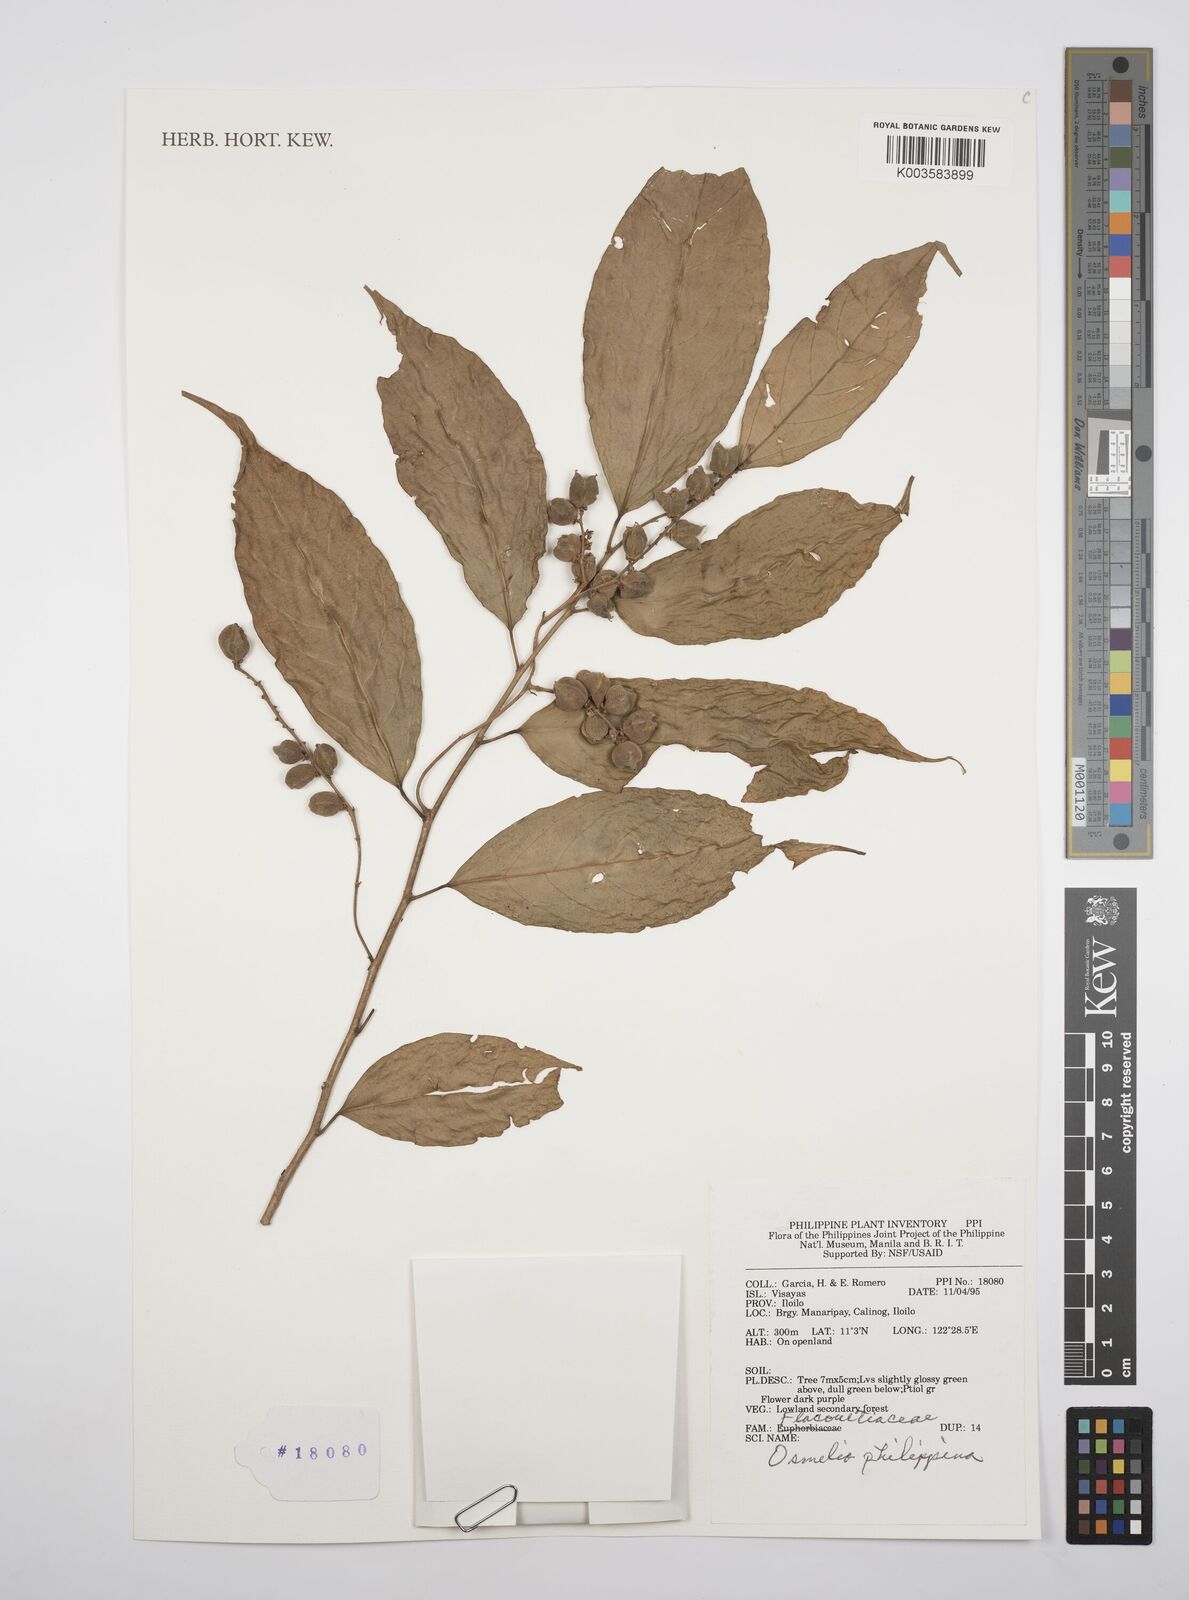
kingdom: Plantae
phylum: Tracheophyta
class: Magnoliopsida
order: Malpighiales
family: Salicaceae
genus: Osmelia
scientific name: Osmelia philippina
